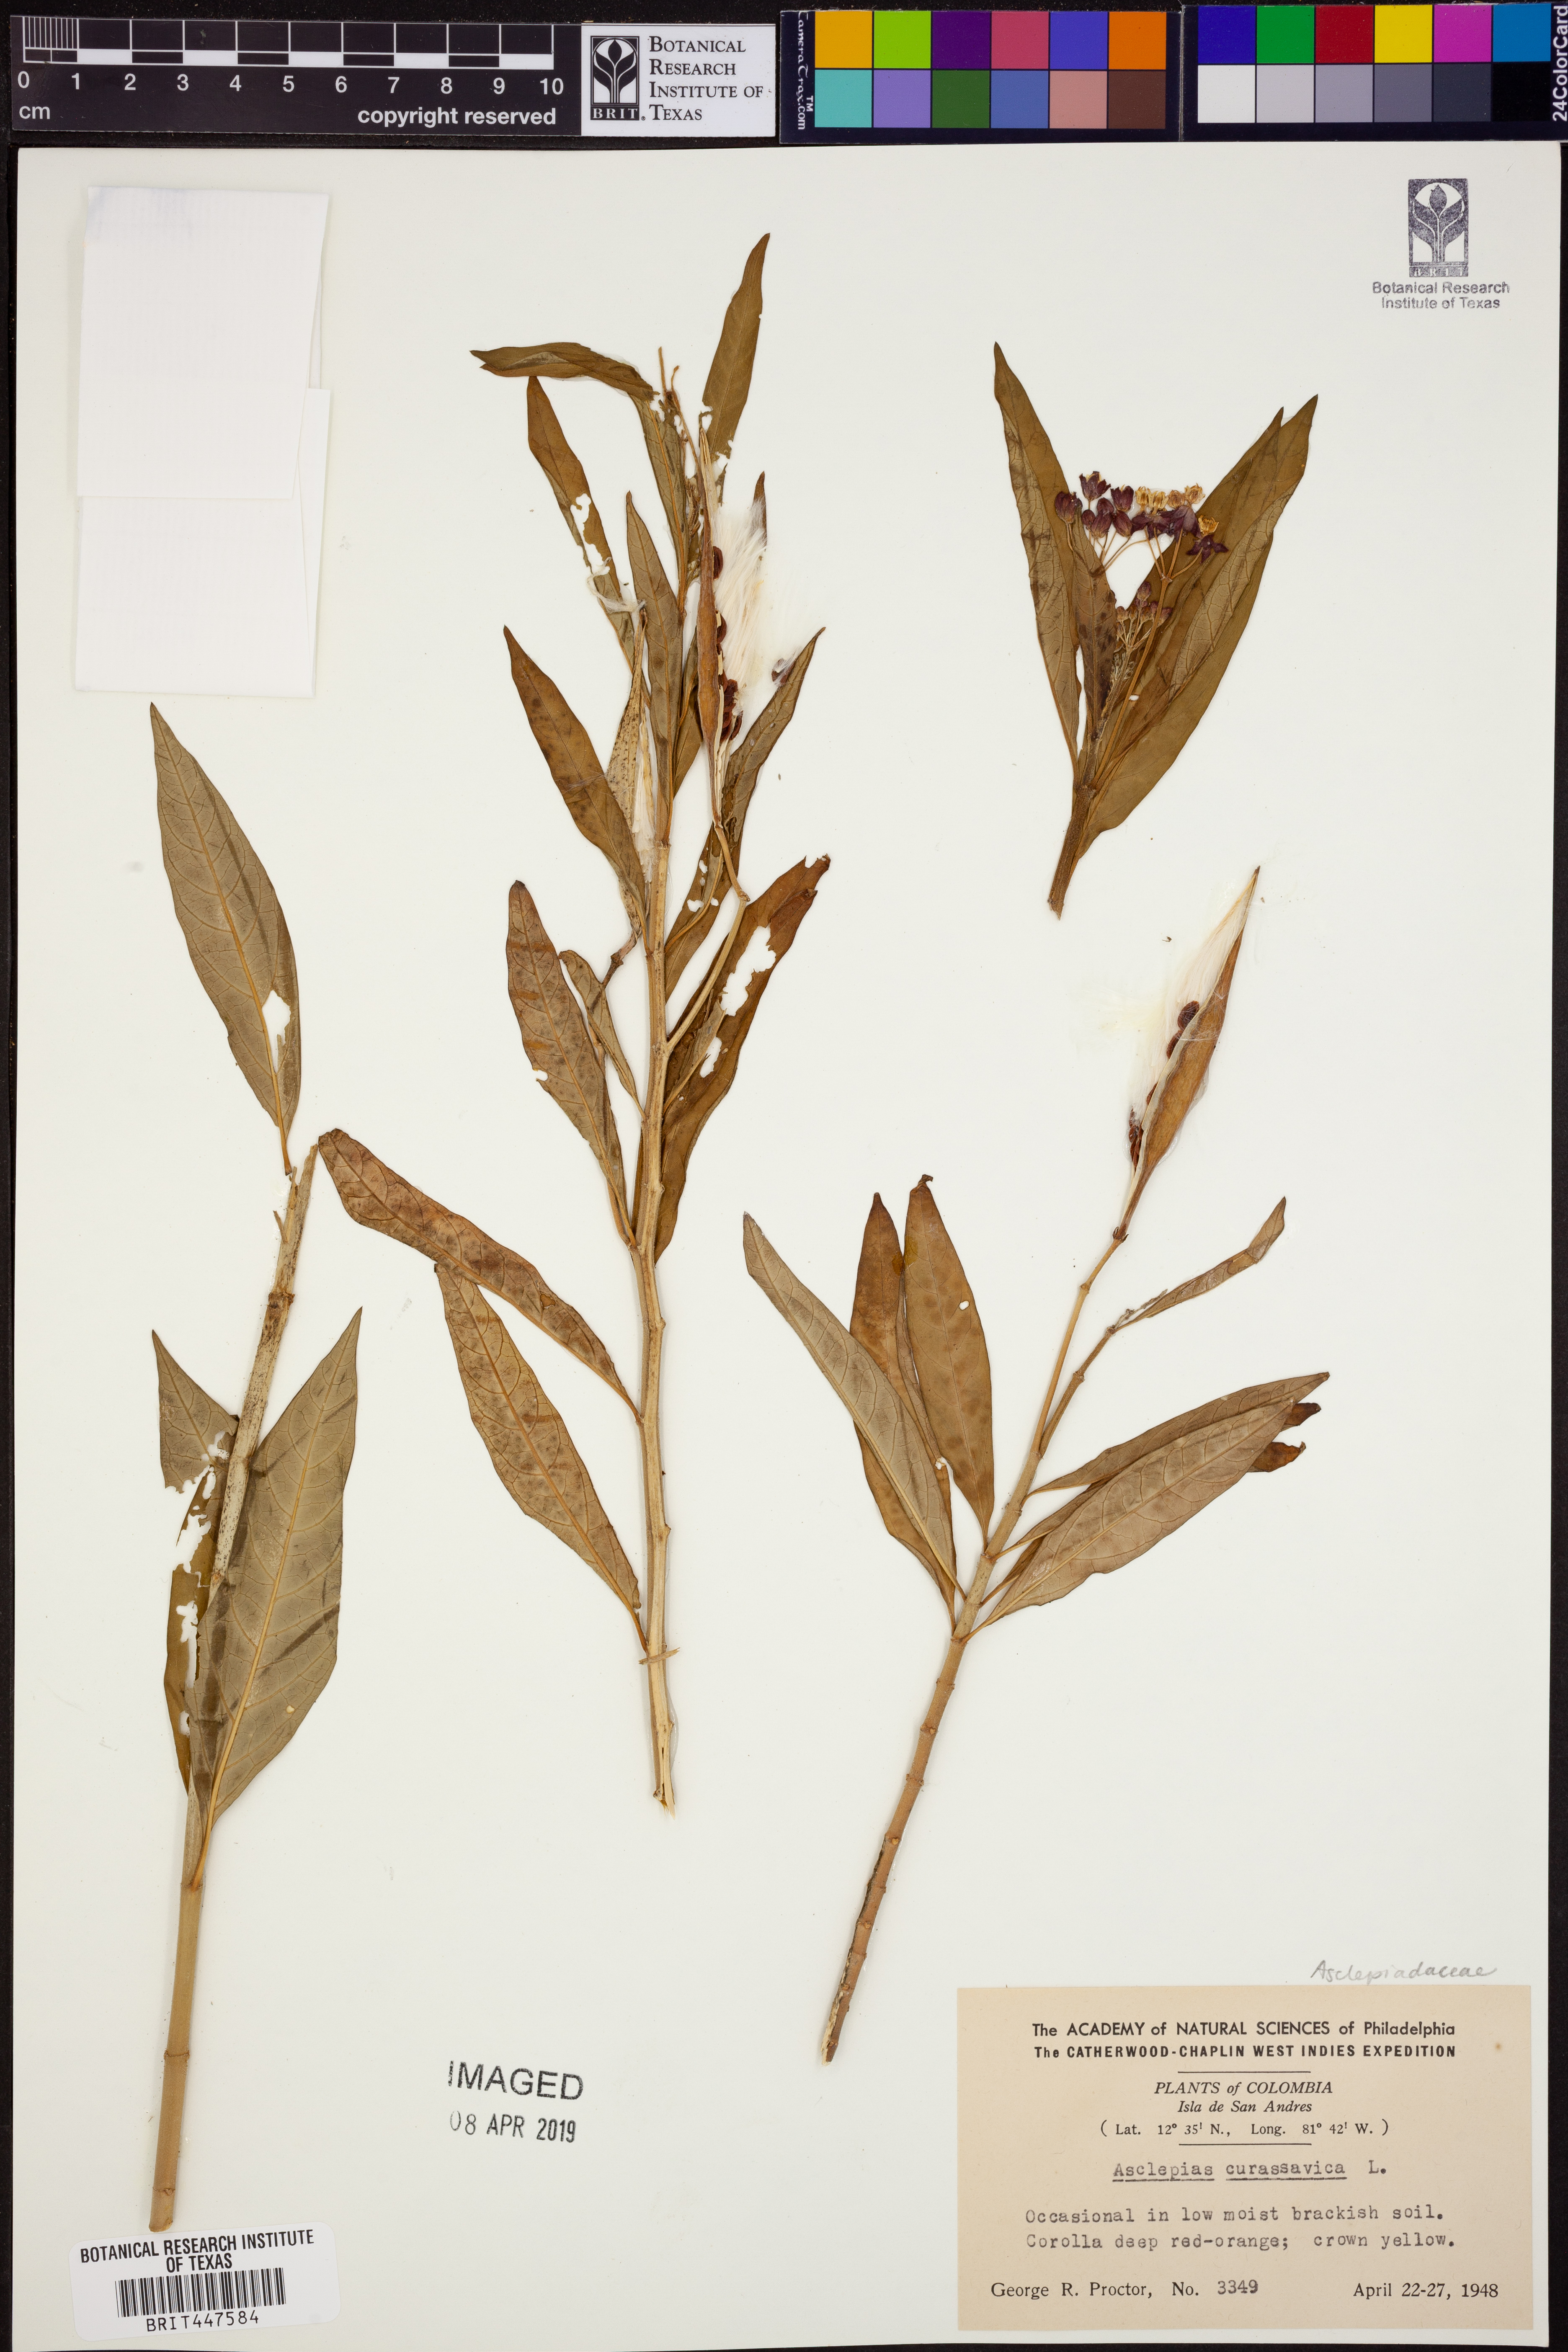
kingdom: Plantae
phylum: Tracheophyta
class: Magnoliopsida
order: Gentianales
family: Apocynaceae
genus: Asclepias
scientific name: Asclepias curassavica
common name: Bloodflower
